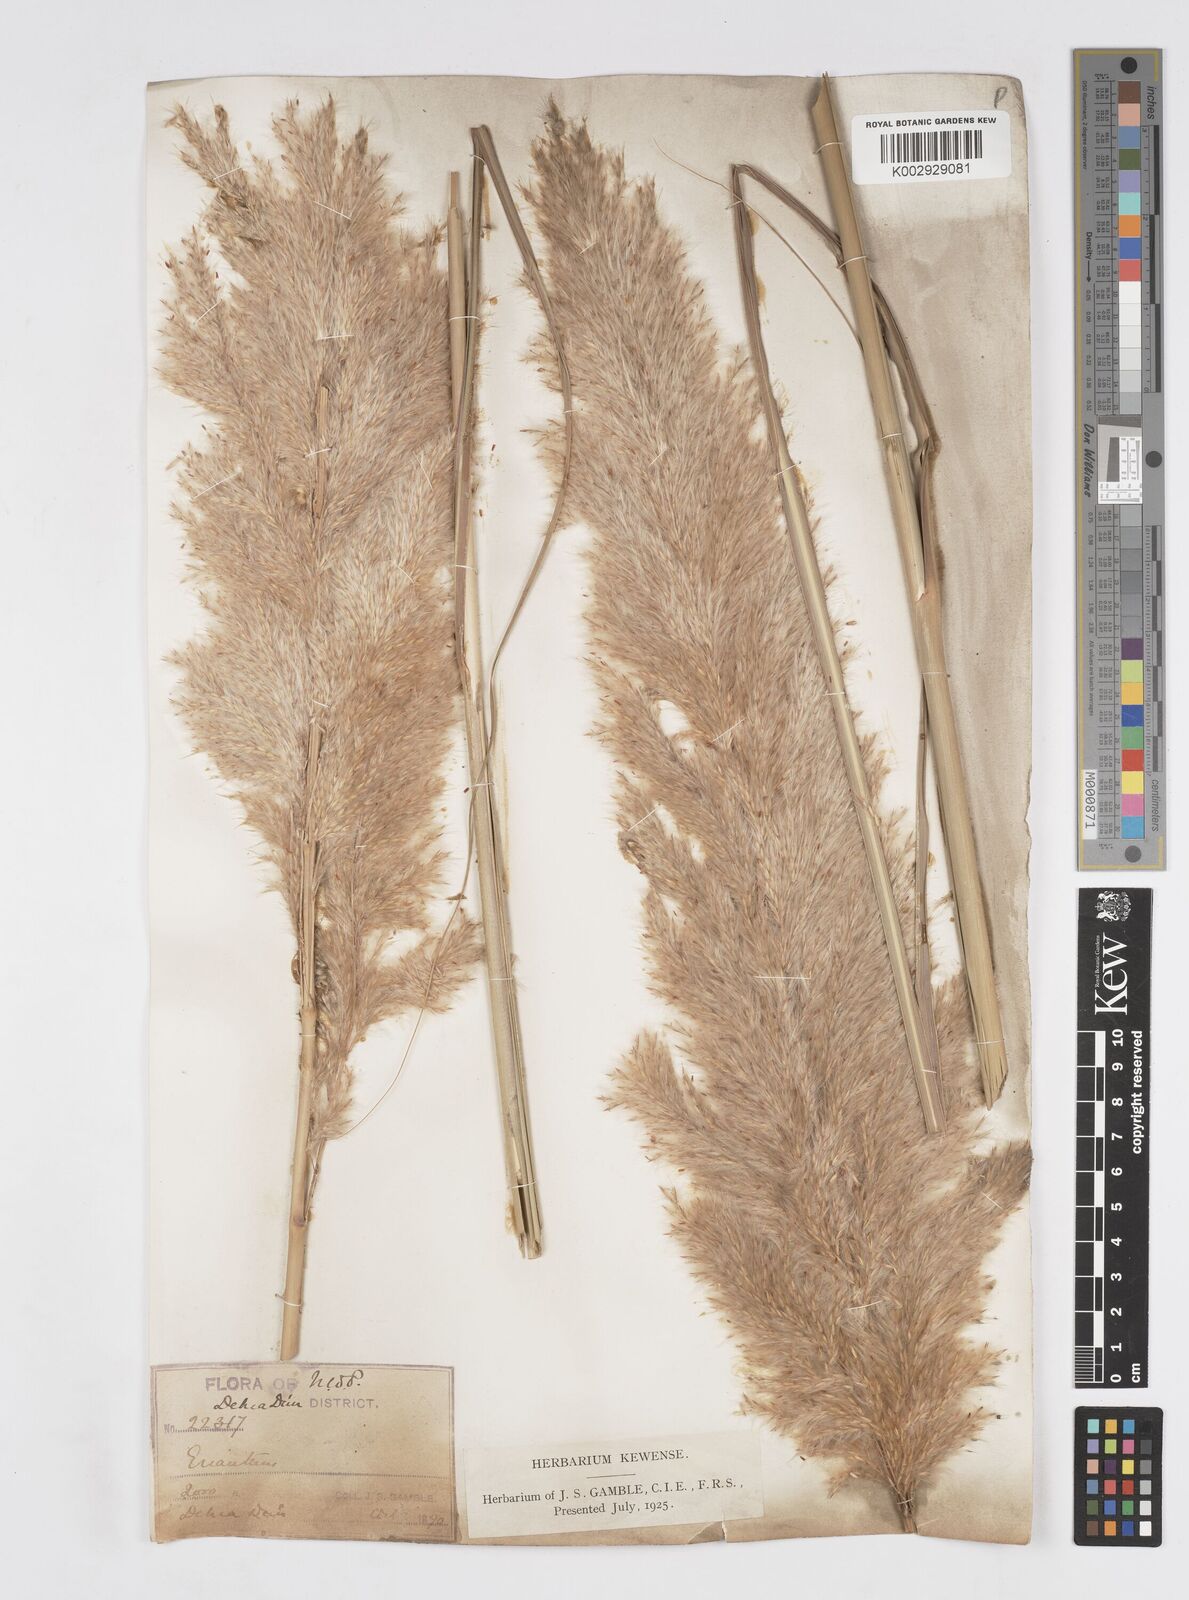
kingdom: Plantae
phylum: Tracheophyta
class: Liliopsida
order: Poales
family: Poaceae
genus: Tripidium
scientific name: Tripidium bengalense
